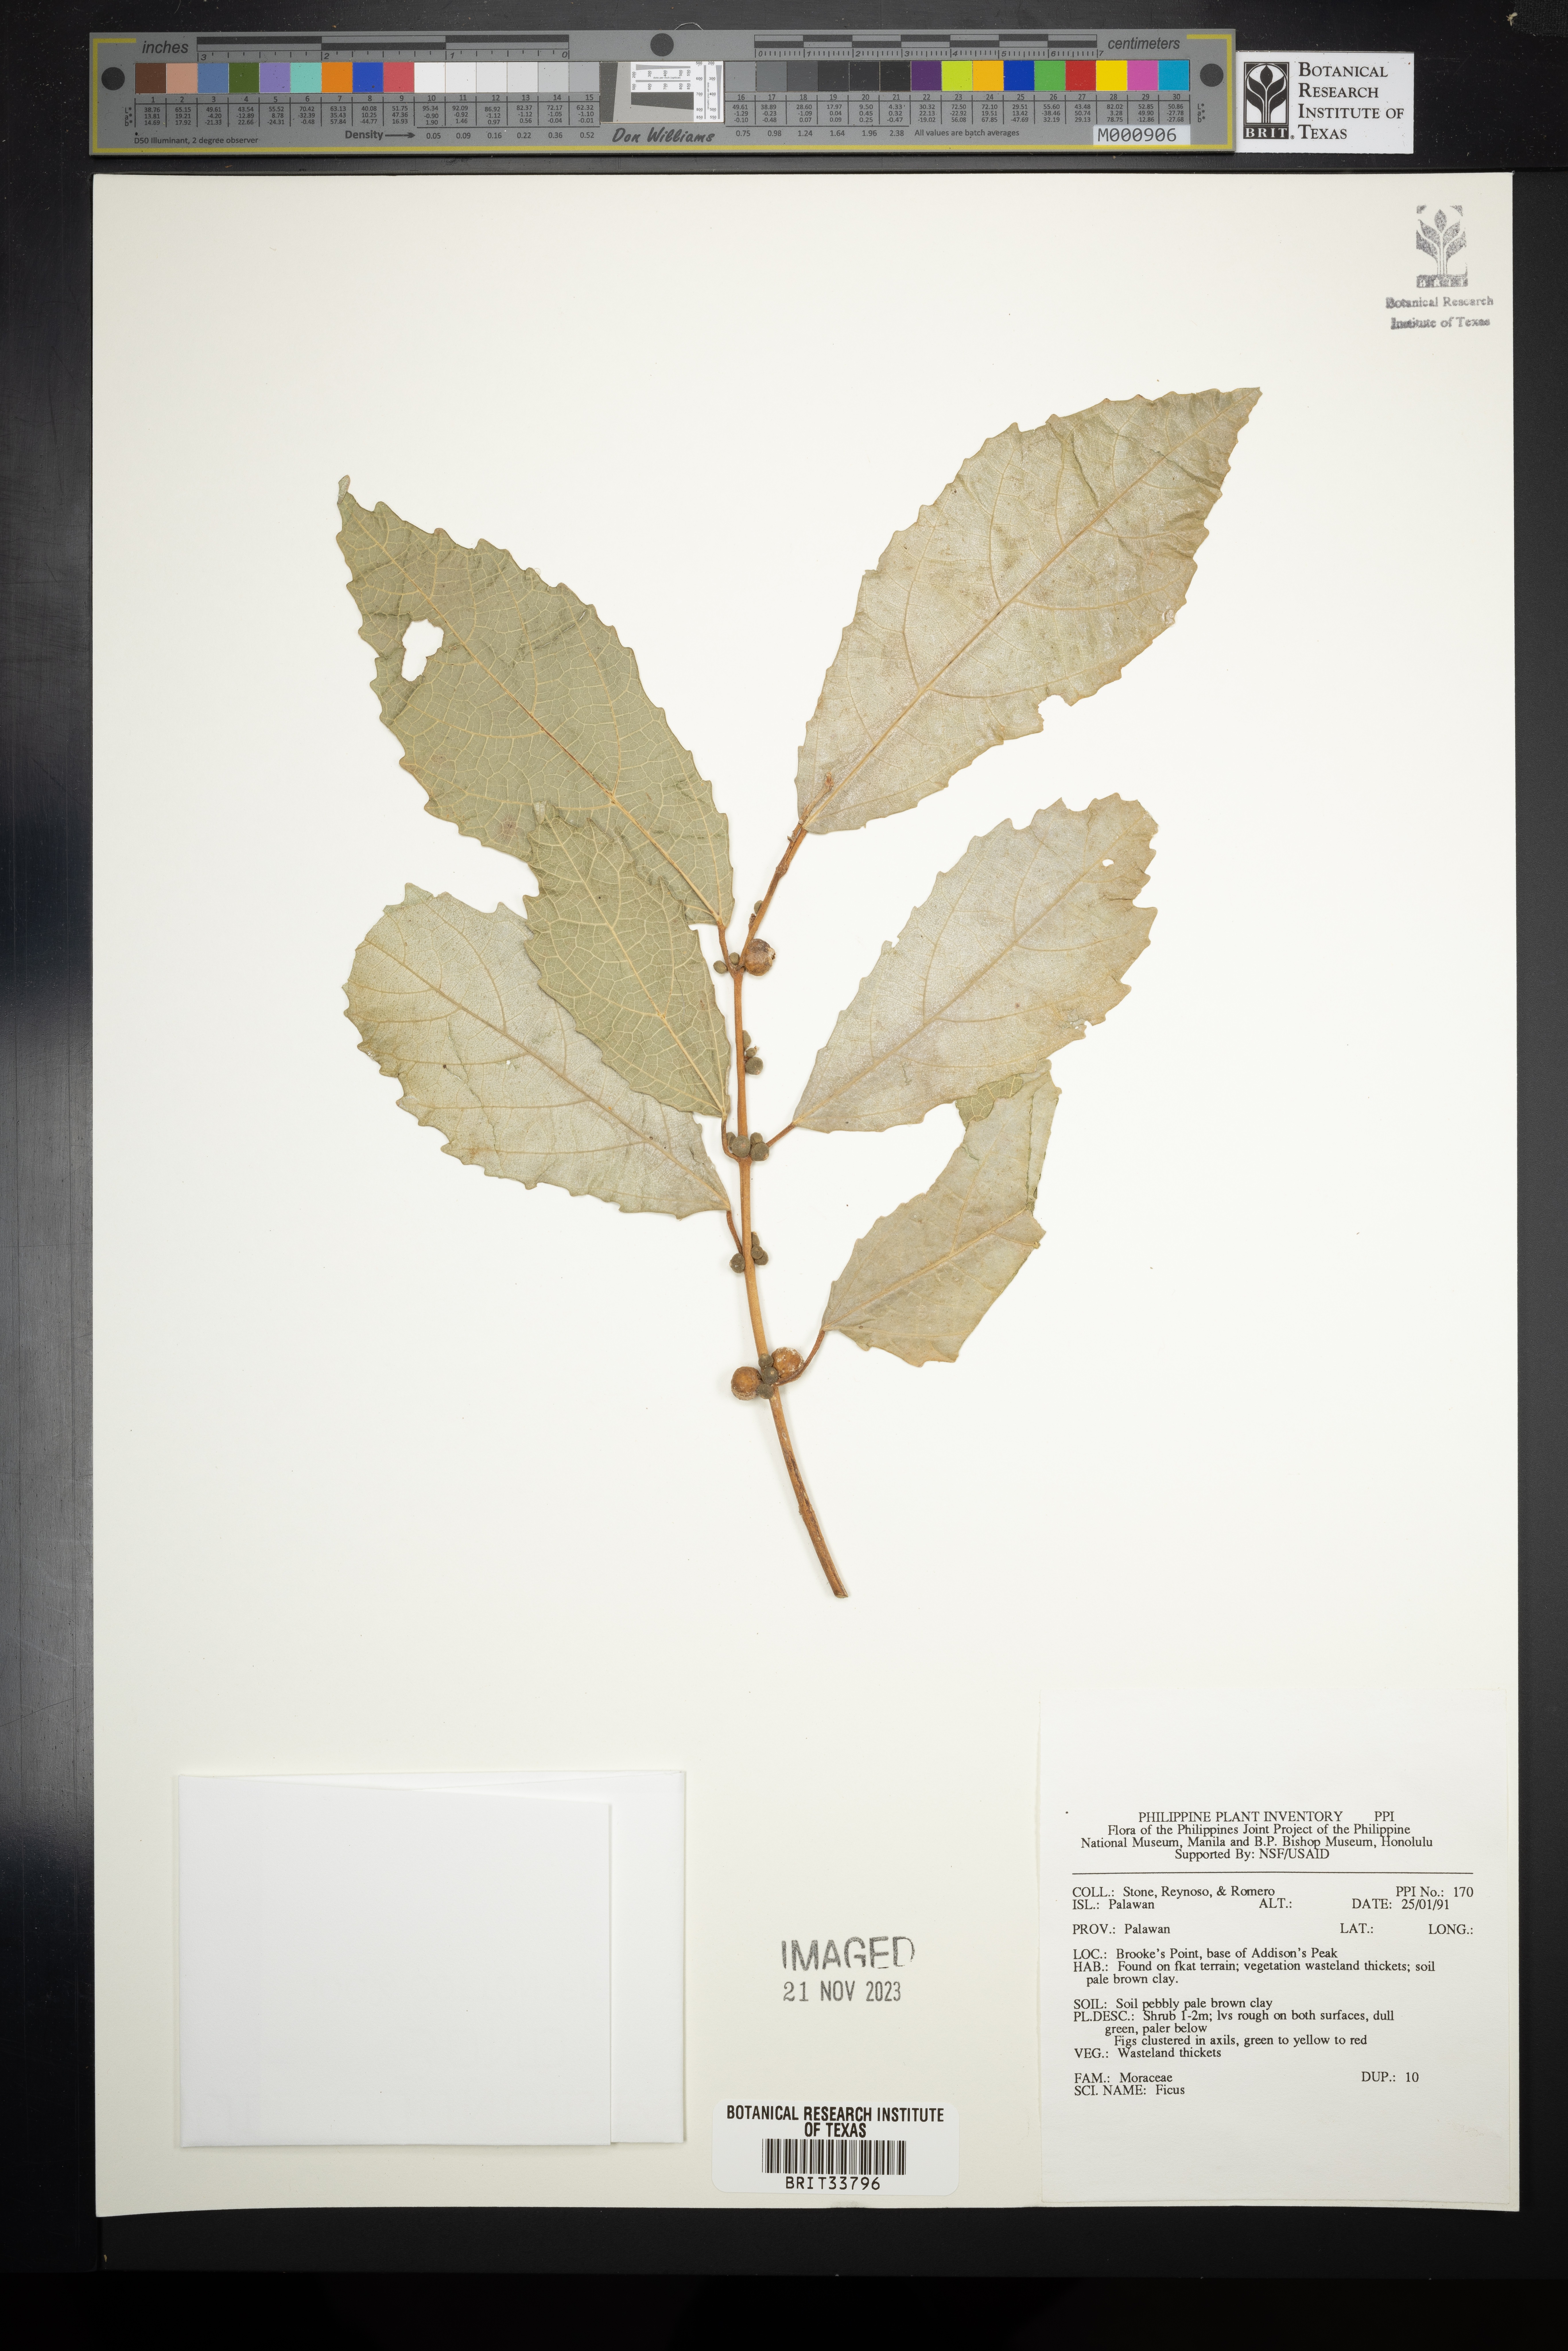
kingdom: Plantae
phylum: Tracheophyta
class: Magnoliopsida
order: Rosales
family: Moraceae
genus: Ficus
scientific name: Ficus
